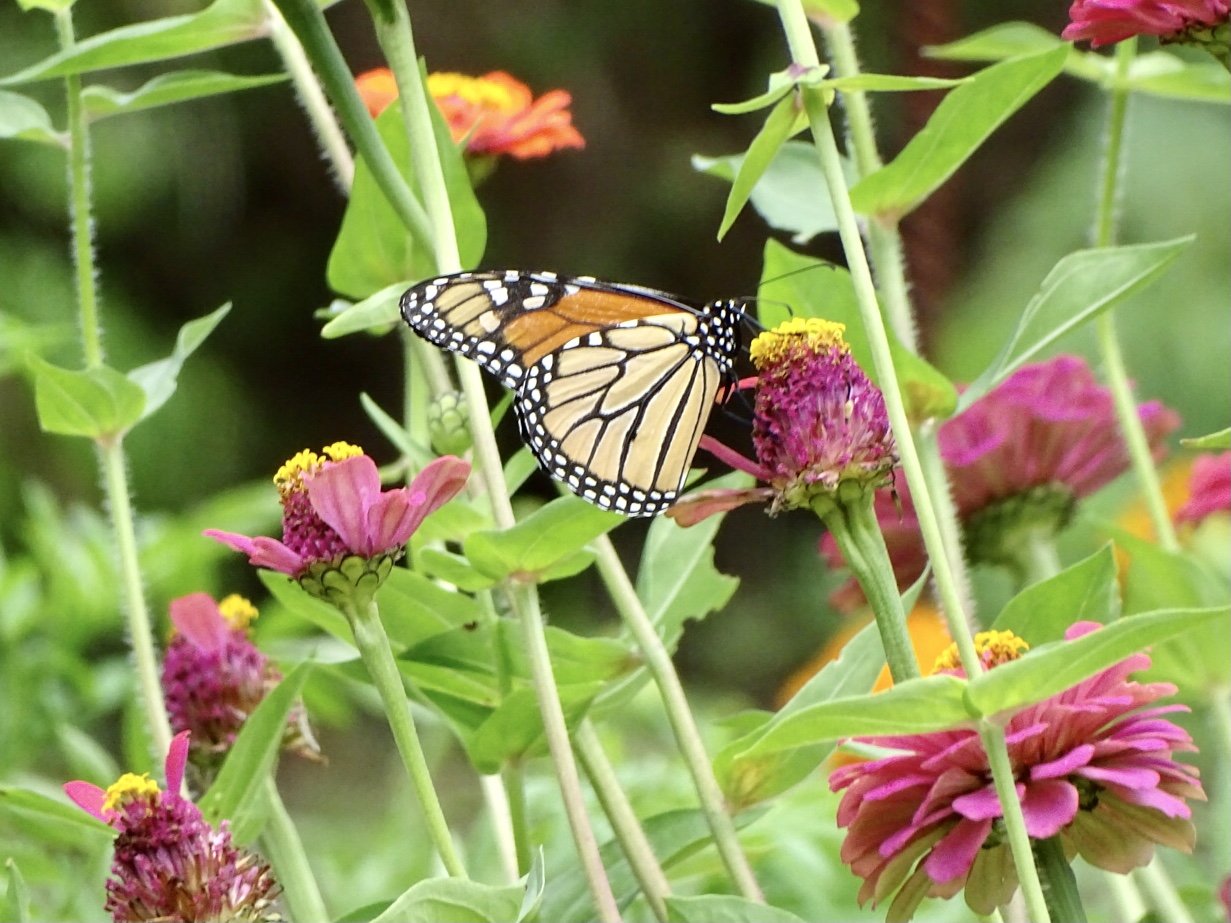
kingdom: Animalia
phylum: Arthropoda
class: Insecta
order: Lepidoptera
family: Nymphalidae
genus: Danaus
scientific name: Danaus plexippus
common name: Monarch
